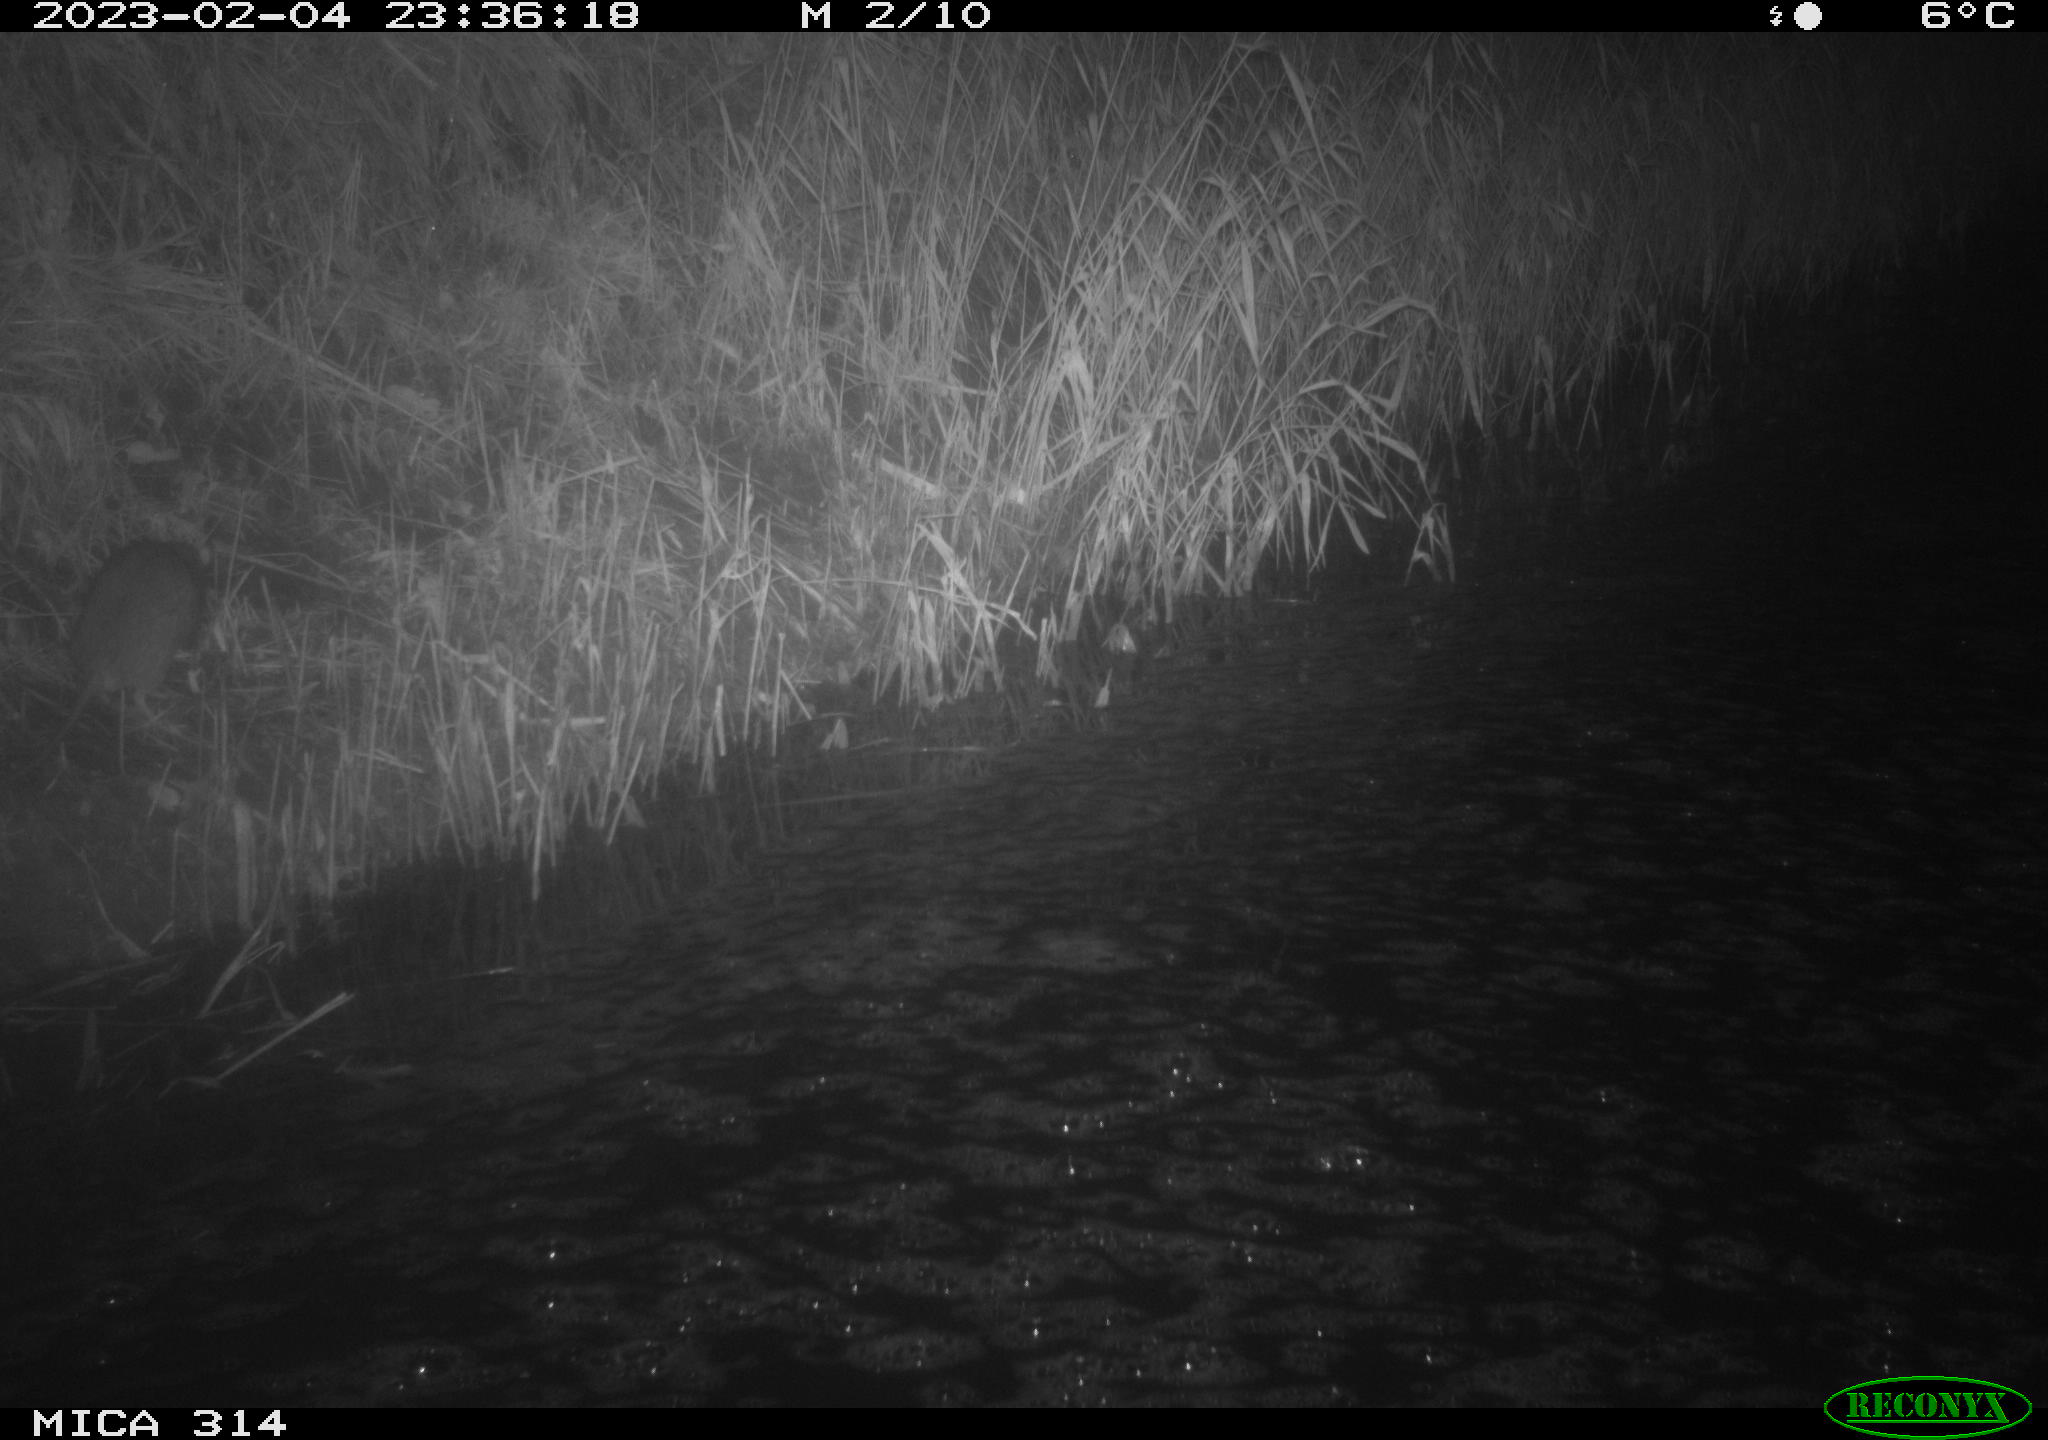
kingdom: Animalia
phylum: Chordata
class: Mammalia
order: Rodentia
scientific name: Rodentia
